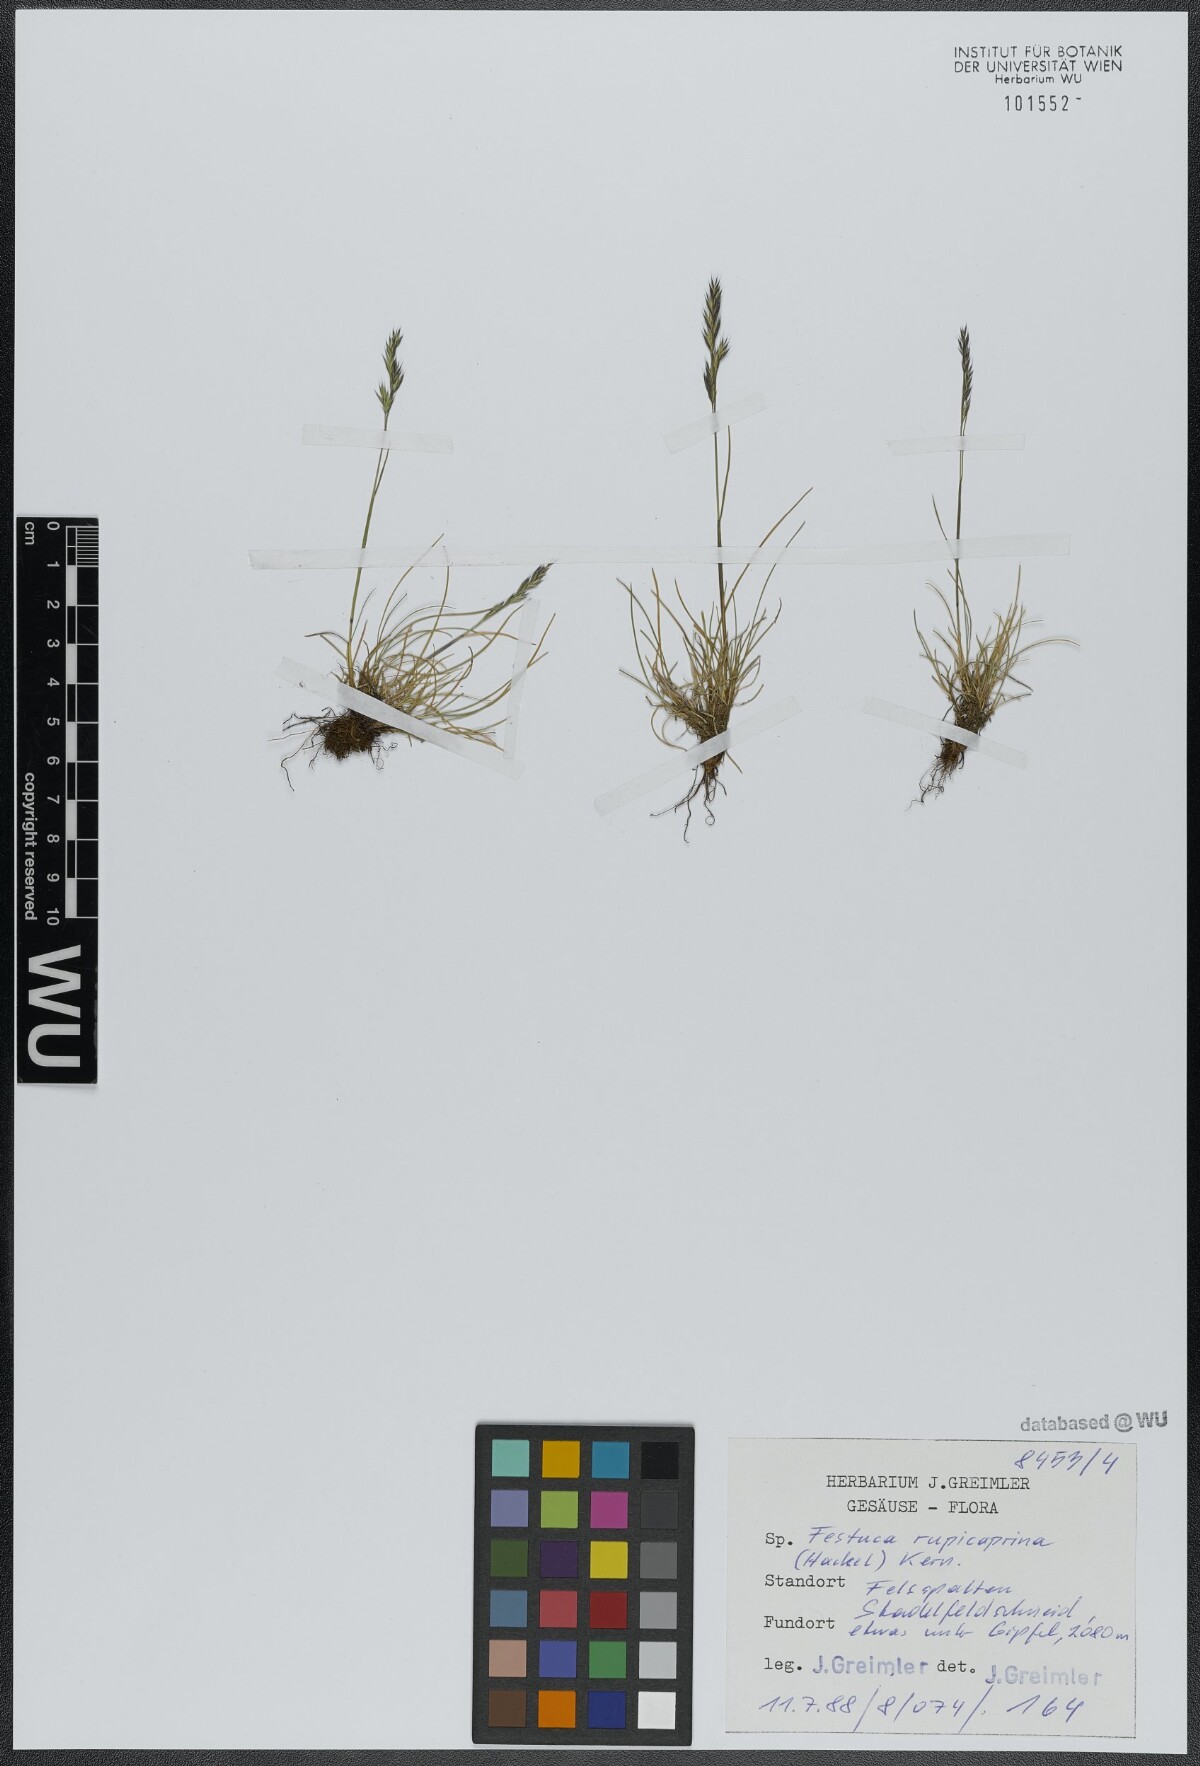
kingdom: Plantae
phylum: Tracheophyta
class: Liliopsida
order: Poales
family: Poaceae
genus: Festuca
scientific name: Festuca rupicaprina
